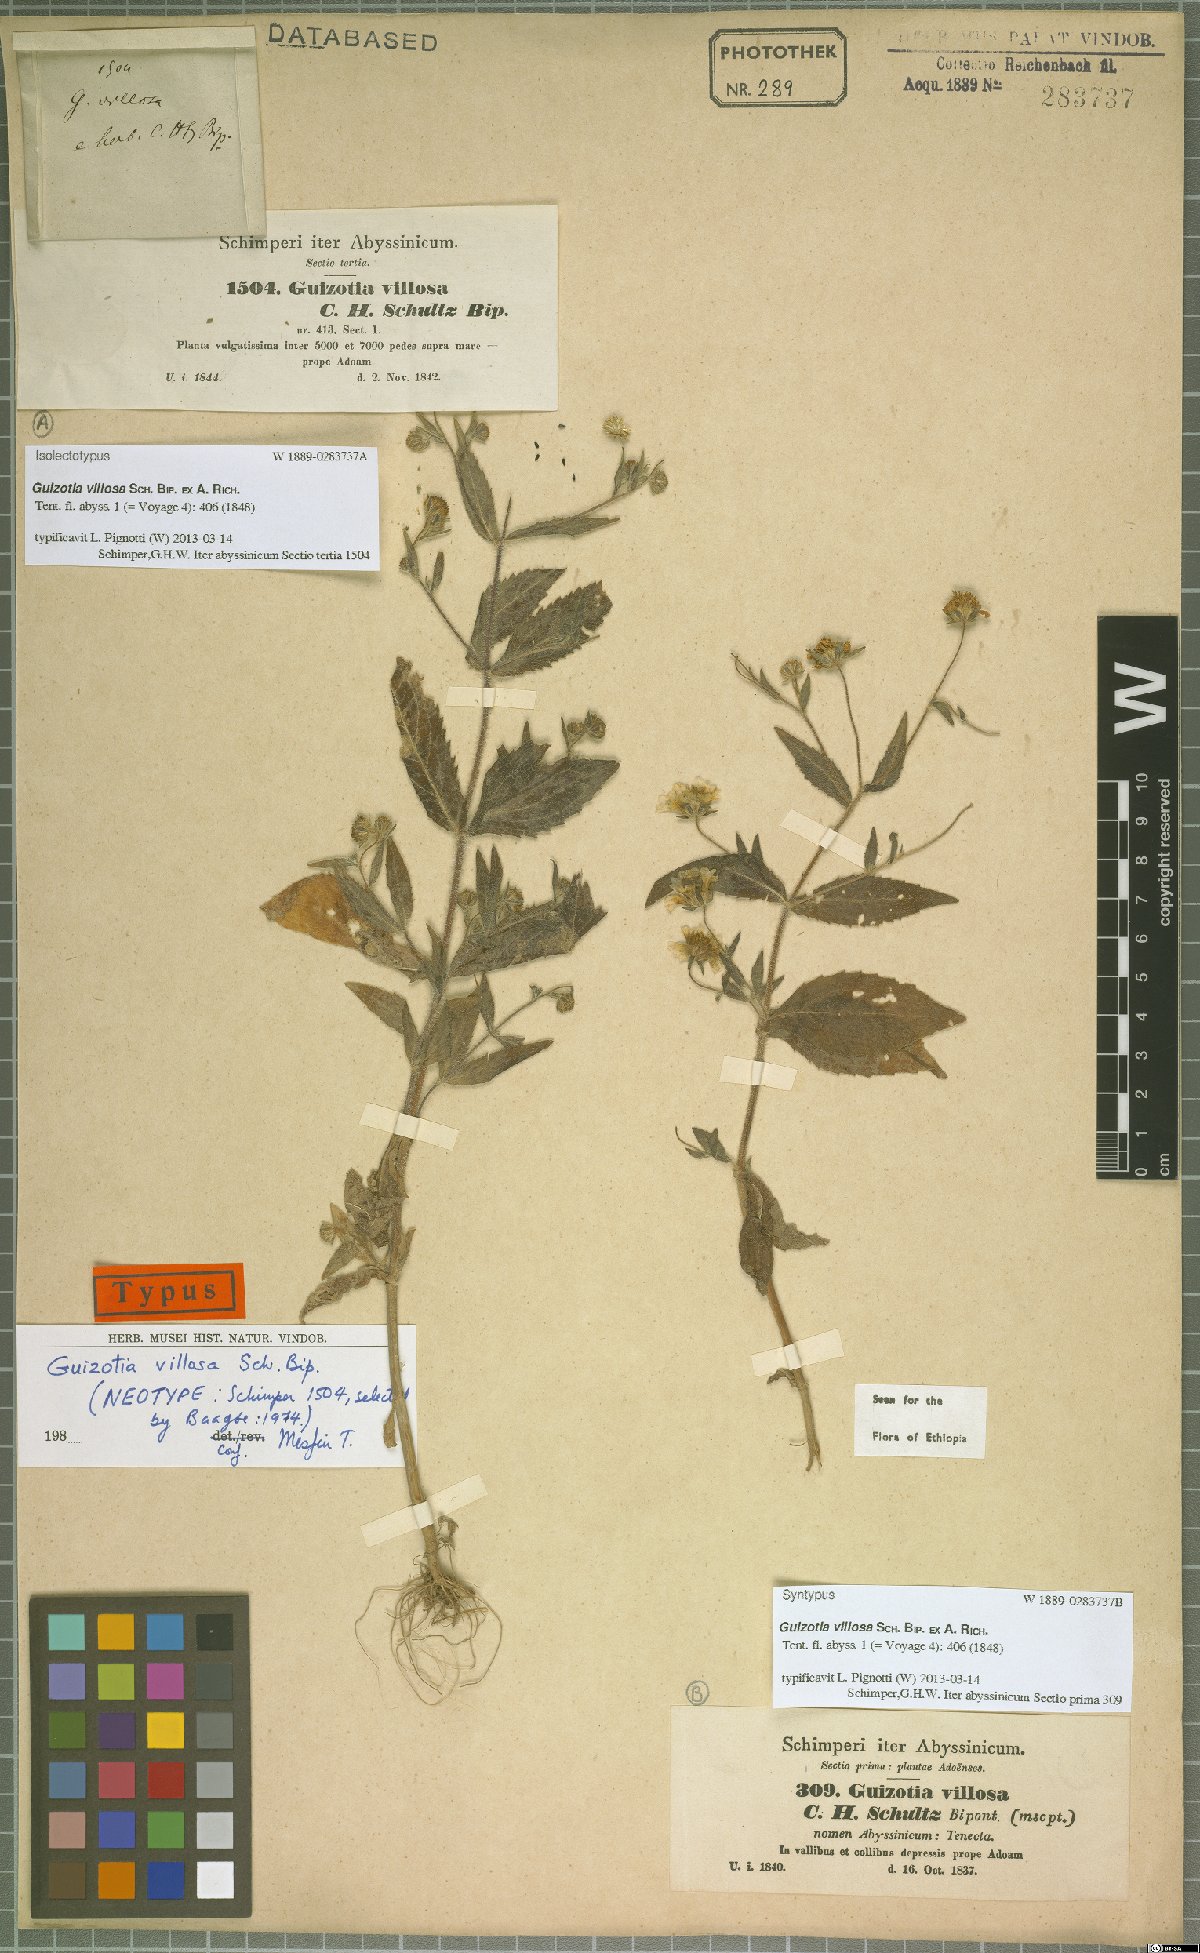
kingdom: Plantae
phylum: Tracheophyta
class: Magnoliopsida
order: Asterales
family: Asteraceae
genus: Guizotia
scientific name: Guizotia villosa
